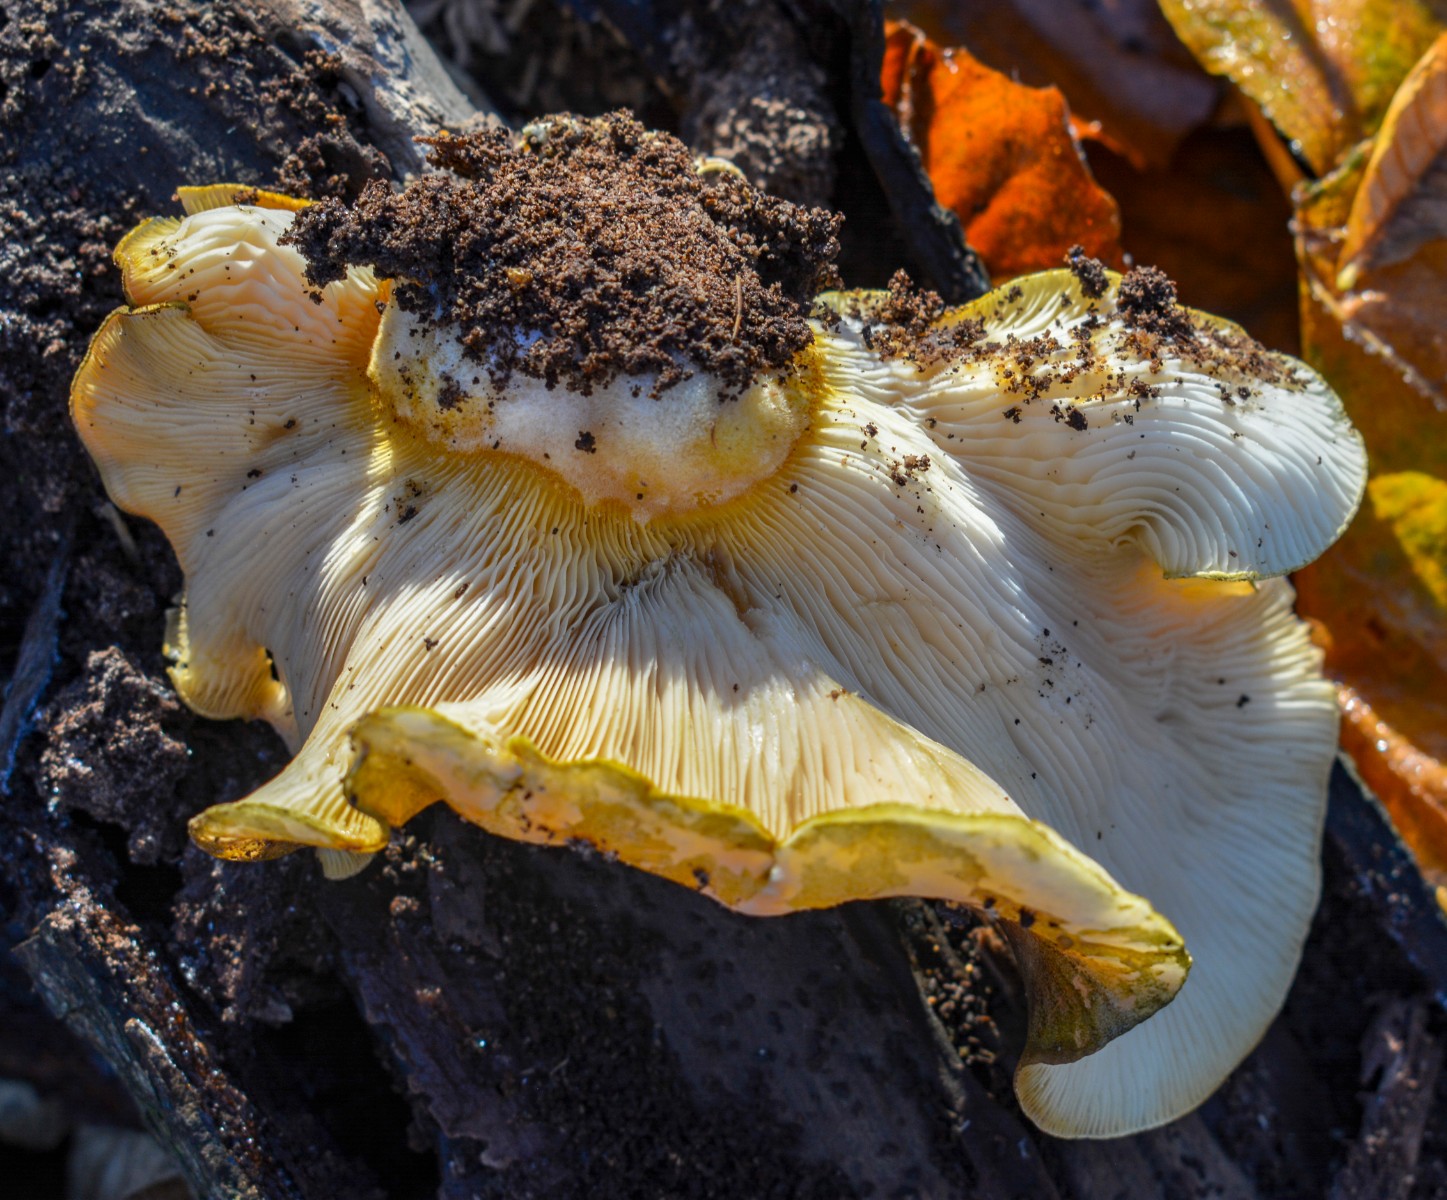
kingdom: Fungi
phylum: Basidiomycota
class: Agaricomycetes
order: Agaricales
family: Sarcomyxaceae
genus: Sarcomyxa
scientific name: Sarcomyxa serotina
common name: gummihat
